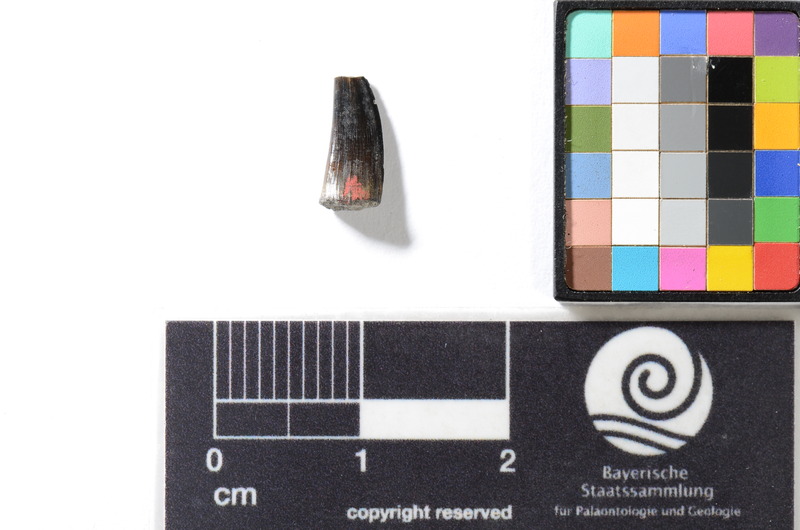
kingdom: Animalia
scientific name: Animalia
